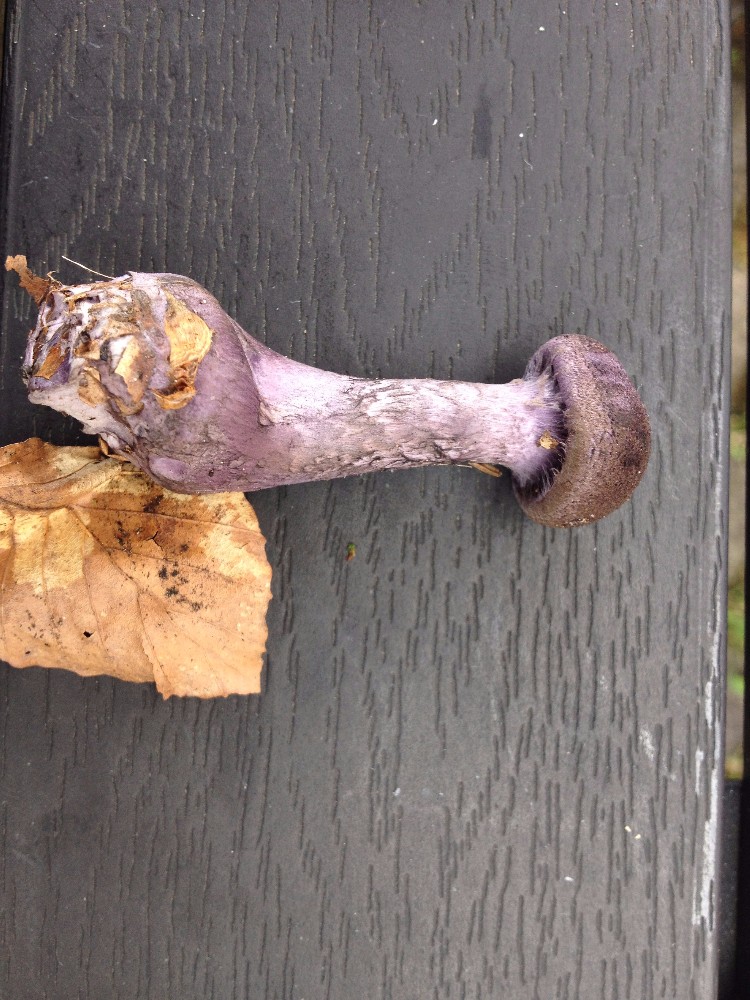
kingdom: Fungi
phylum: Basidiomycota
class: Agaricomycetes
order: Agaricales
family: Cortinariaceae
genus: Cortinarius
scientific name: Cortinarius violaceus
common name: mørkviolet slørhat
